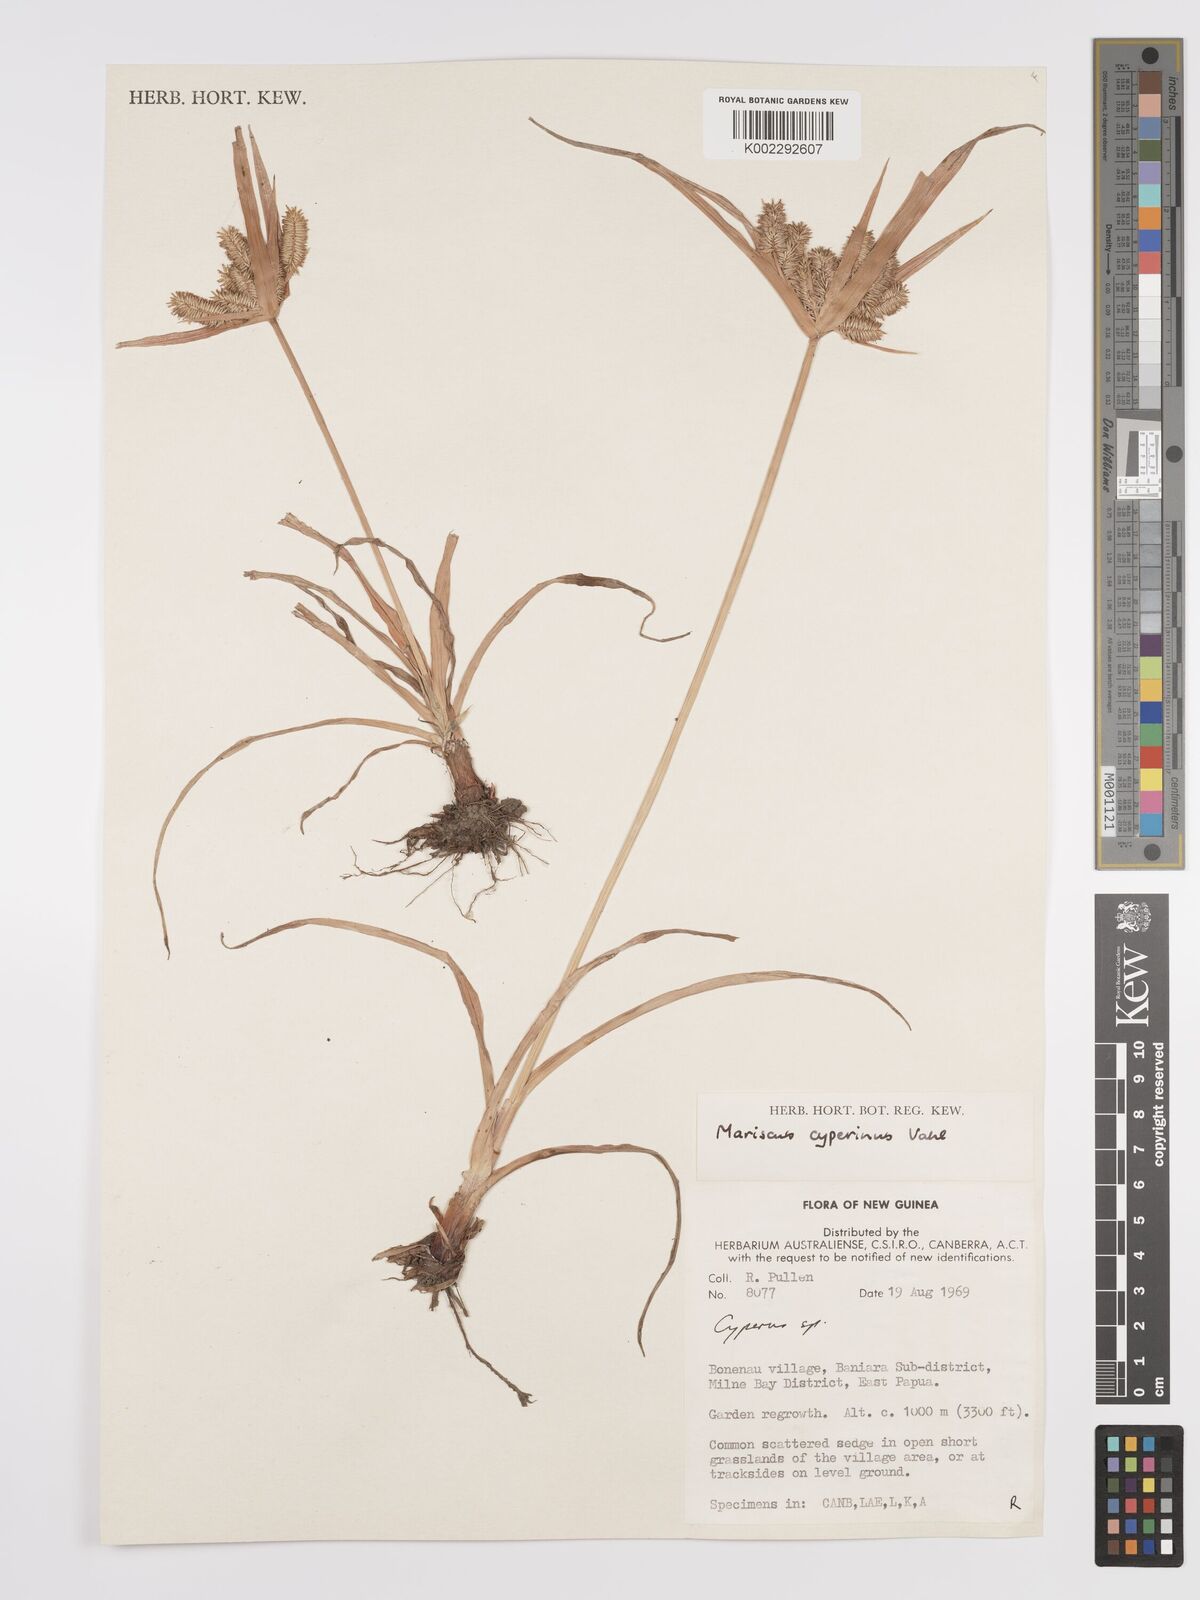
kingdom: Plantae
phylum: Tracheophyta
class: Liliopsida
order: Poales
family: Cyperaceae
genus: Cyperus
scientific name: Cyperus cyperinus
